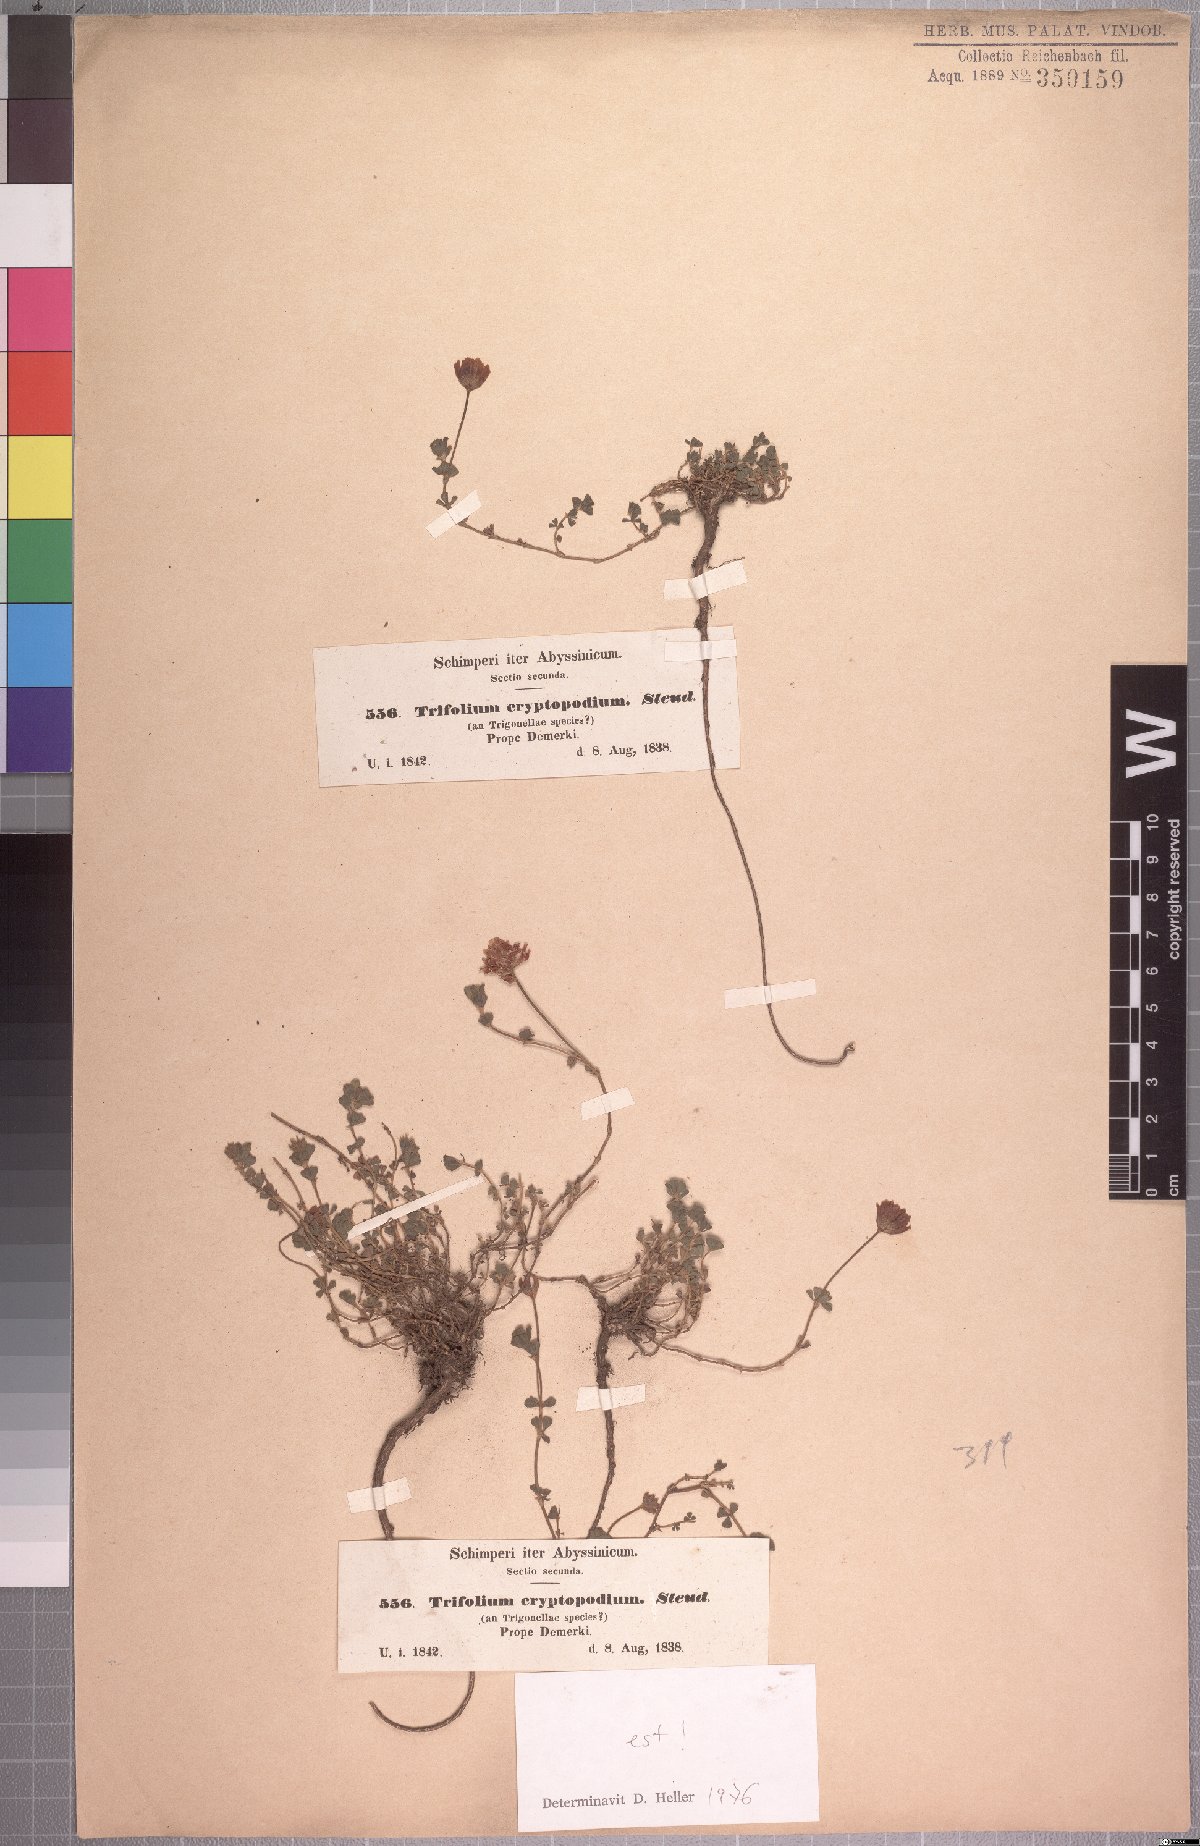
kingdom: Plantae
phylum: Tracheophyta
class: Magnoliopsida
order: Fabales
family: Fabaceae
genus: Trifolium
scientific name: Trifolium cryptopodium
